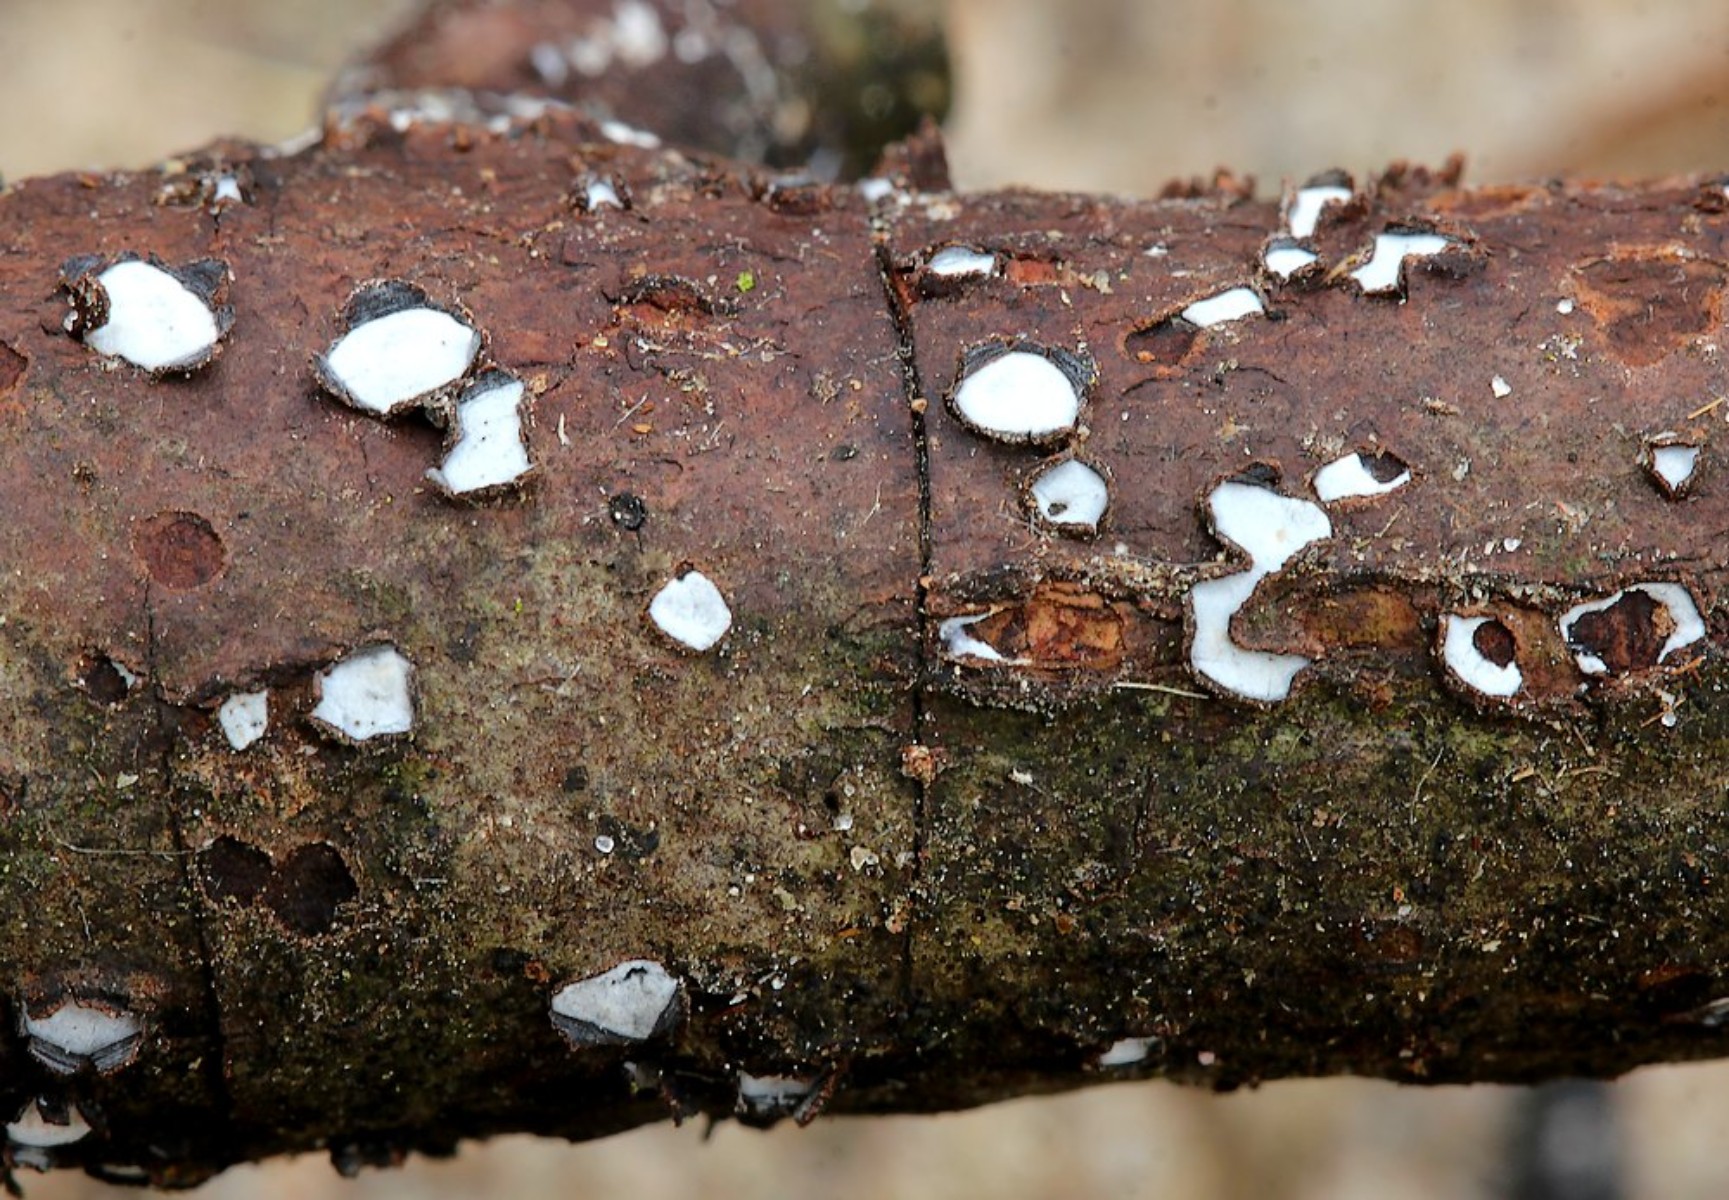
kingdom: Fungi
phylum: Ascomycota
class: Leotiomycetes
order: Chaetomellales
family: Marthamycetaceae
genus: Propolis
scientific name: Propolis farinosa
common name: almindelig vedsprængerskive
